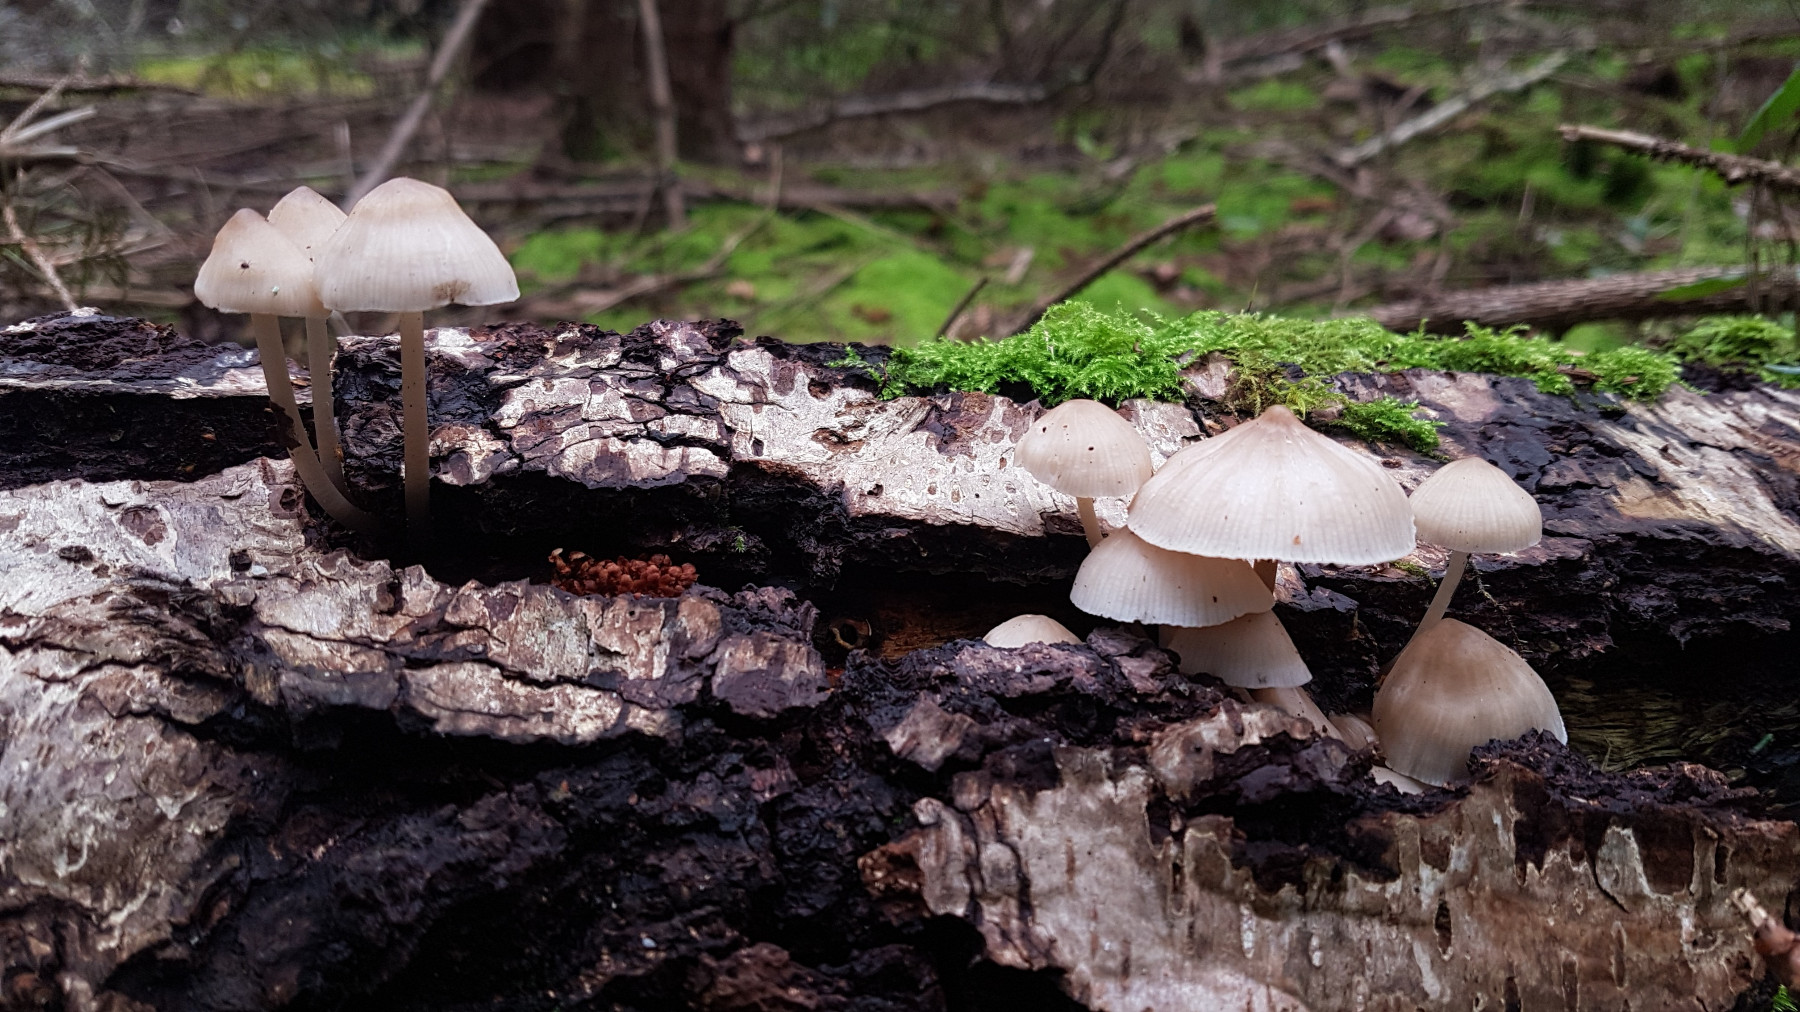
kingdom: Fungi
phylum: Basidiomycota
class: Agaricomycetes
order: Agaricales
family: Mycenaceae
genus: Mycena
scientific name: Mycena galericulata
